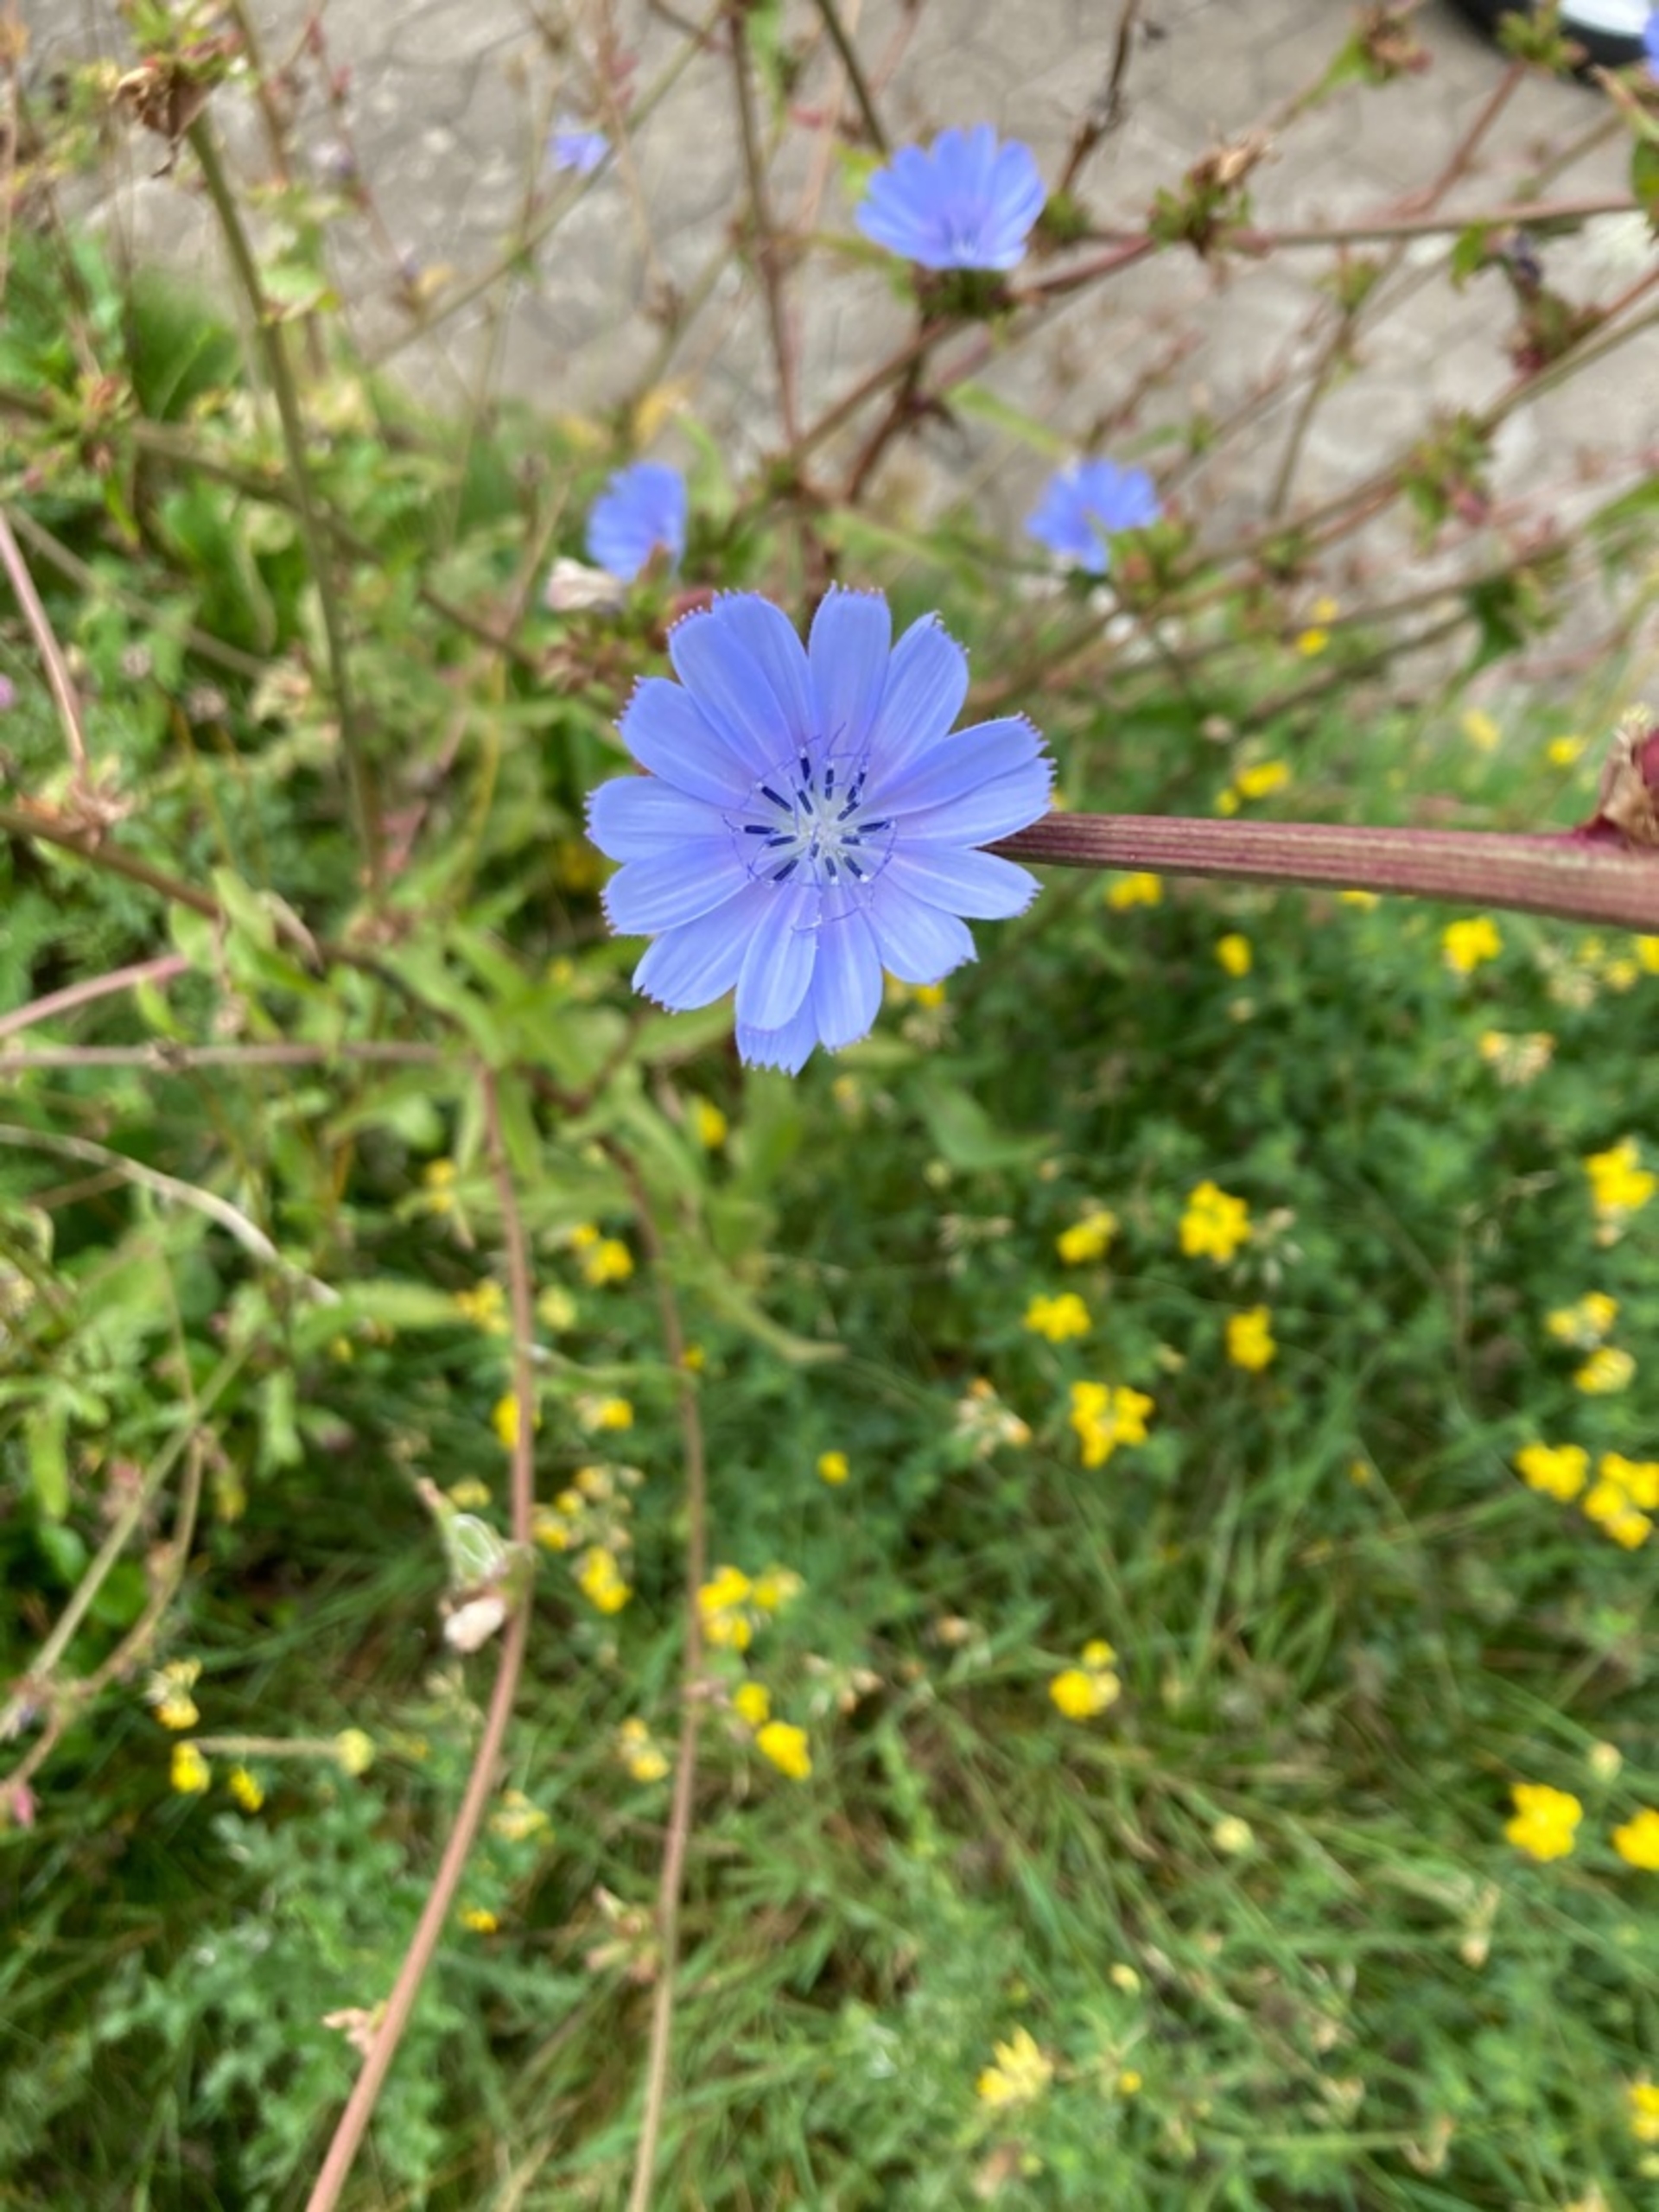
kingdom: Plantae
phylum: Tracheophyta
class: Magnoliopsida
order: Asterales
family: Asteraceae
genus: Cichorium
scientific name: Cichorium intybus
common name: Cikorie
